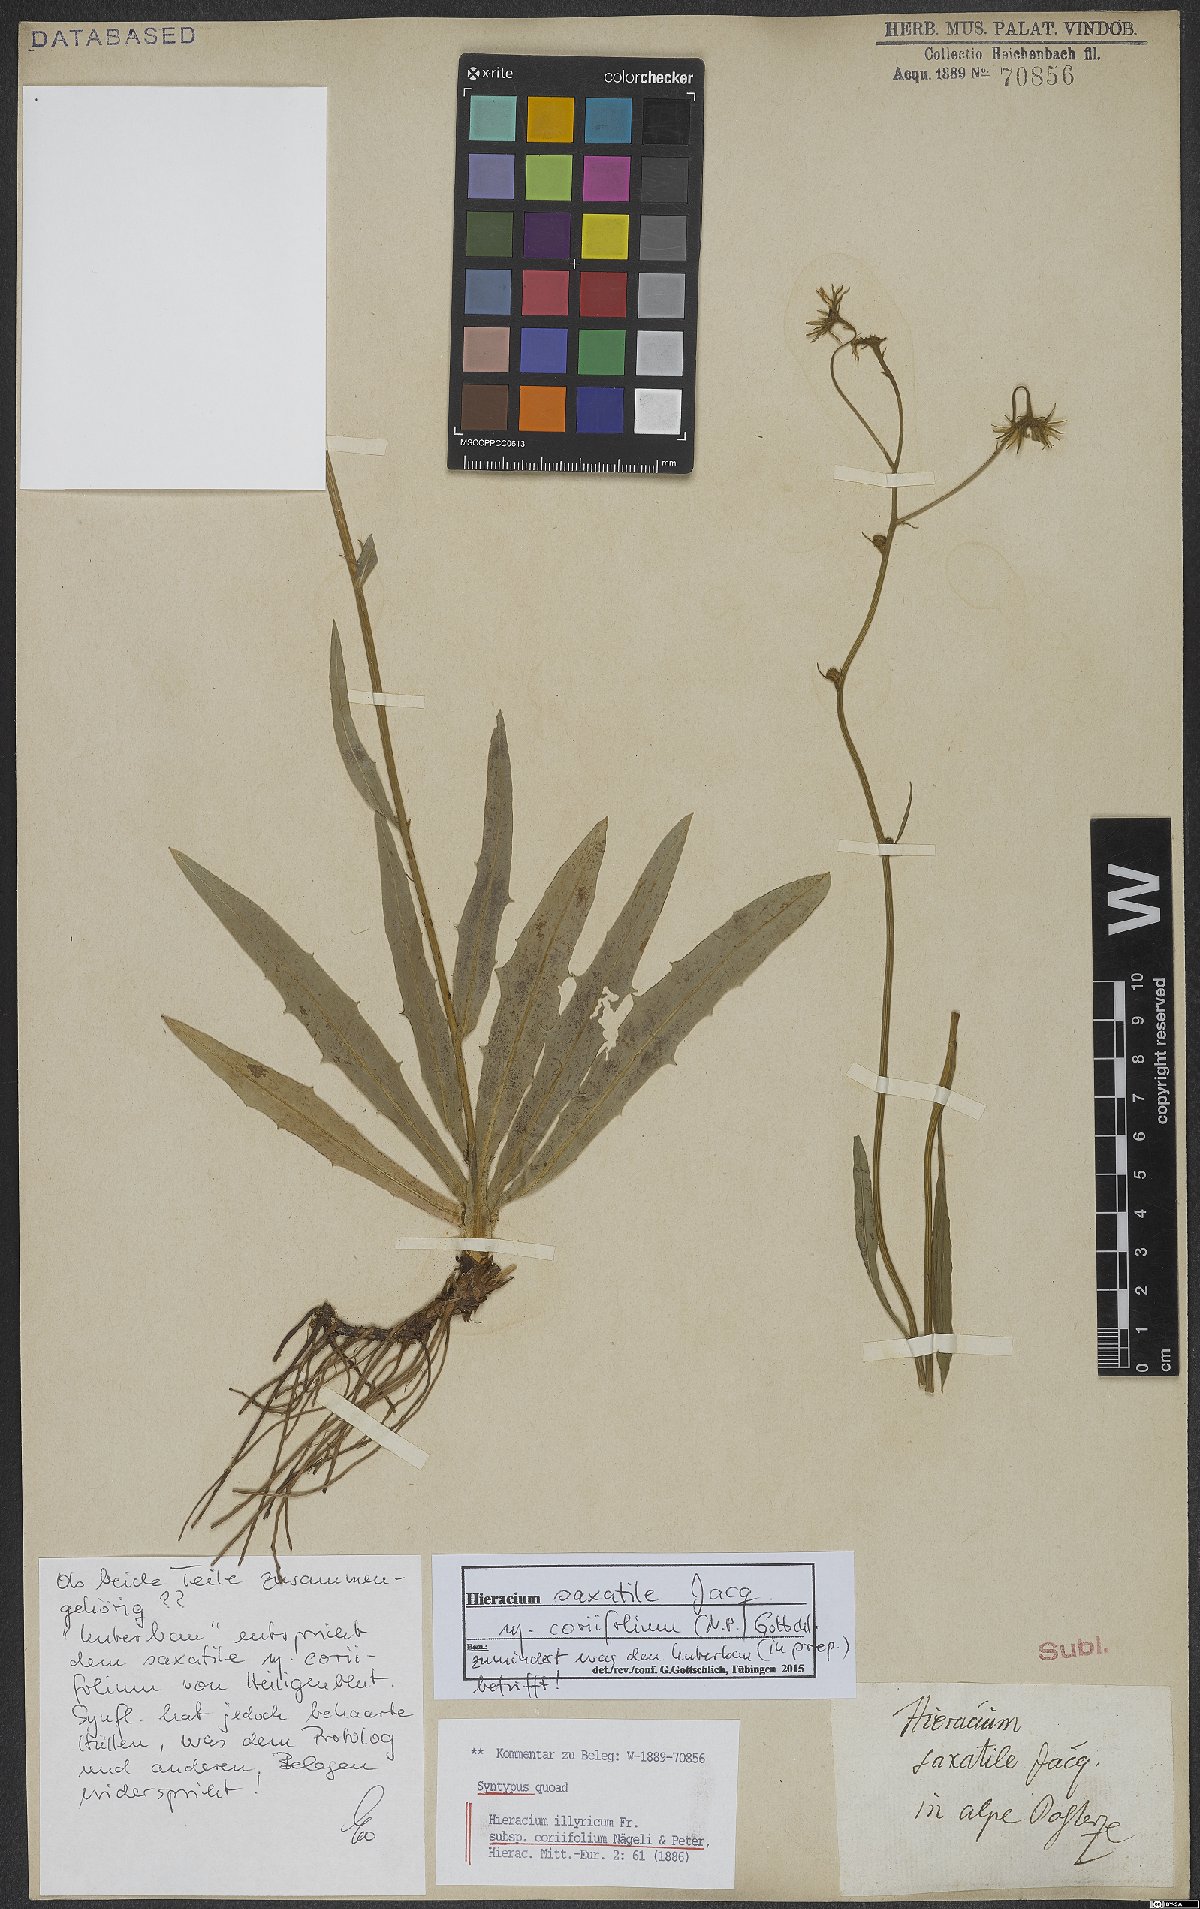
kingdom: Plantae
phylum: Tracheophyta
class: Magnoliopsida
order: Asterales
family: Asteraceae
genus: Hieracium
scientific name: Hieracium saxatile
